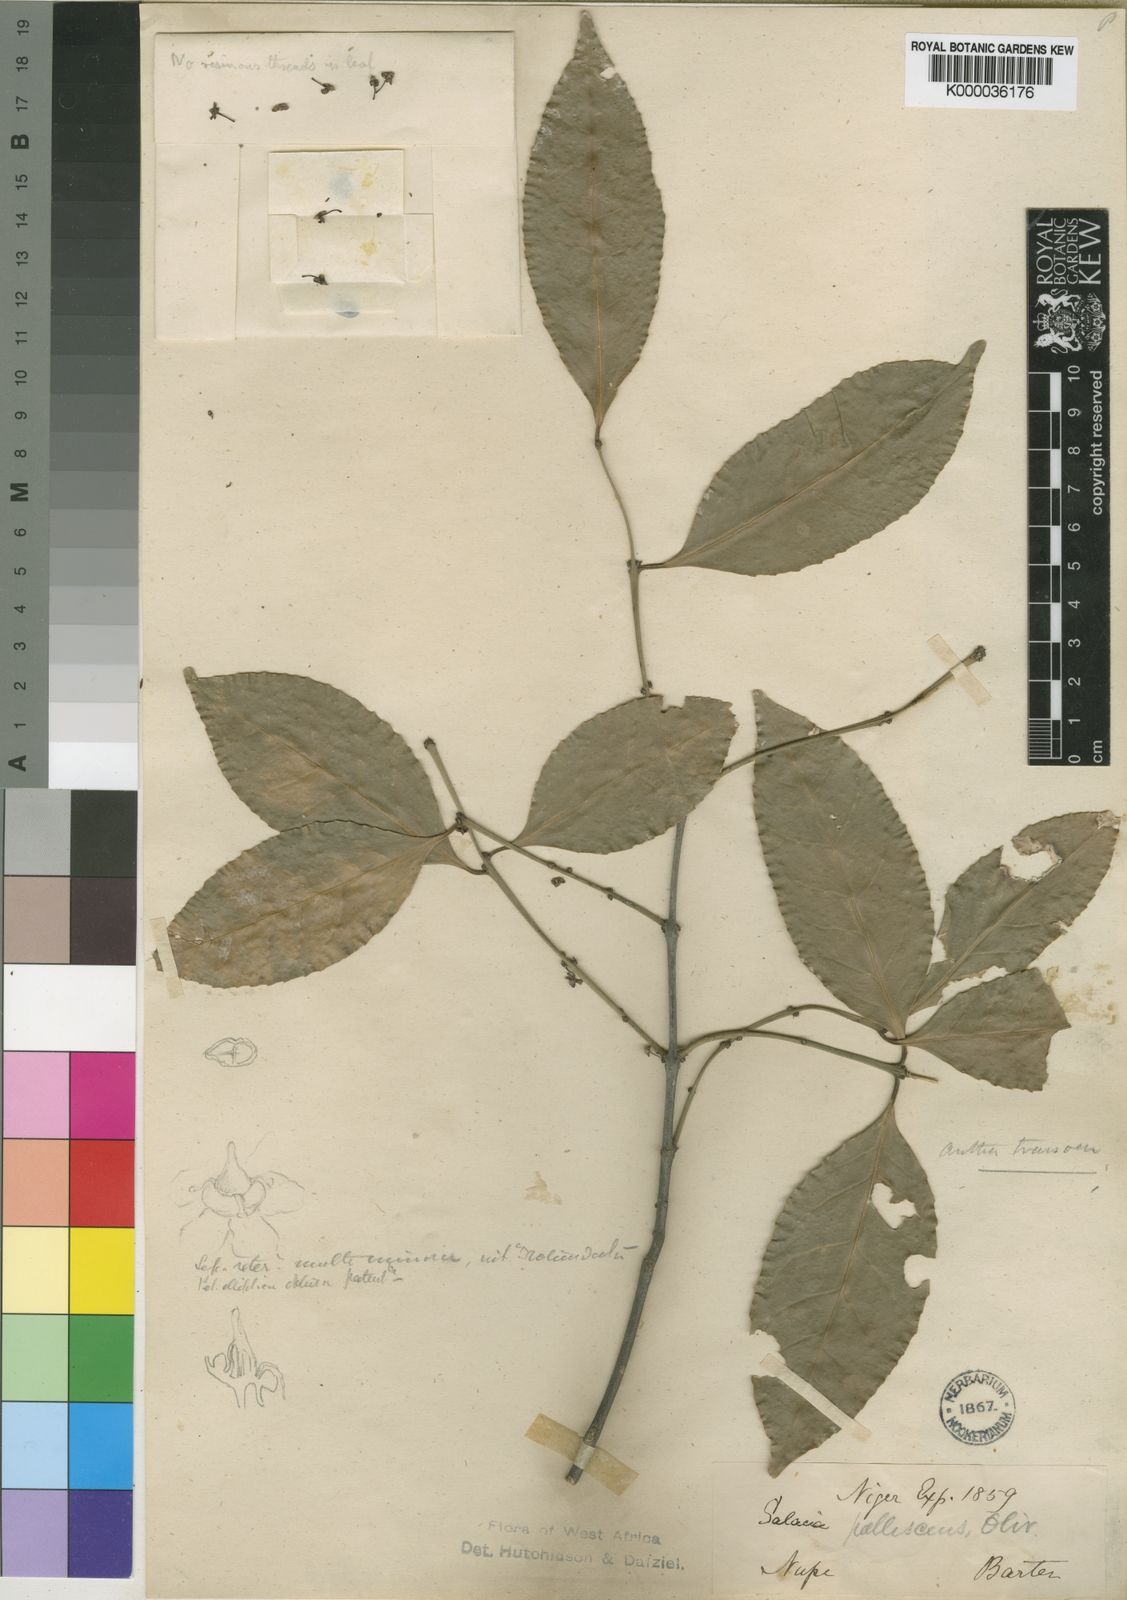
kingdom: Plantae
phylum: Tracheophyta
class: Magnoliopsida
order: Celastrales
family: Celastraceae
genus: Salacia
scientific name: Salacia pallescens
